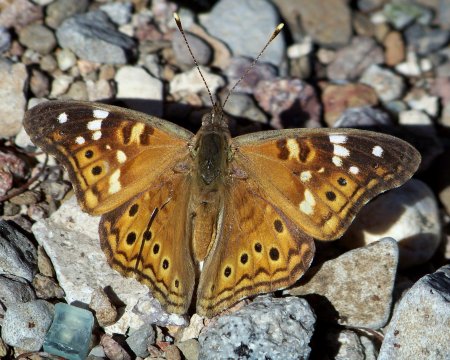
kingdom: Animalia
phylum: Arthropoda
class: Insecta
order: Lepidoptera
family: Nymphalidae
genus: Asterocampa
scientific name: Asterocampa leilia
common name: Empress Leilia
